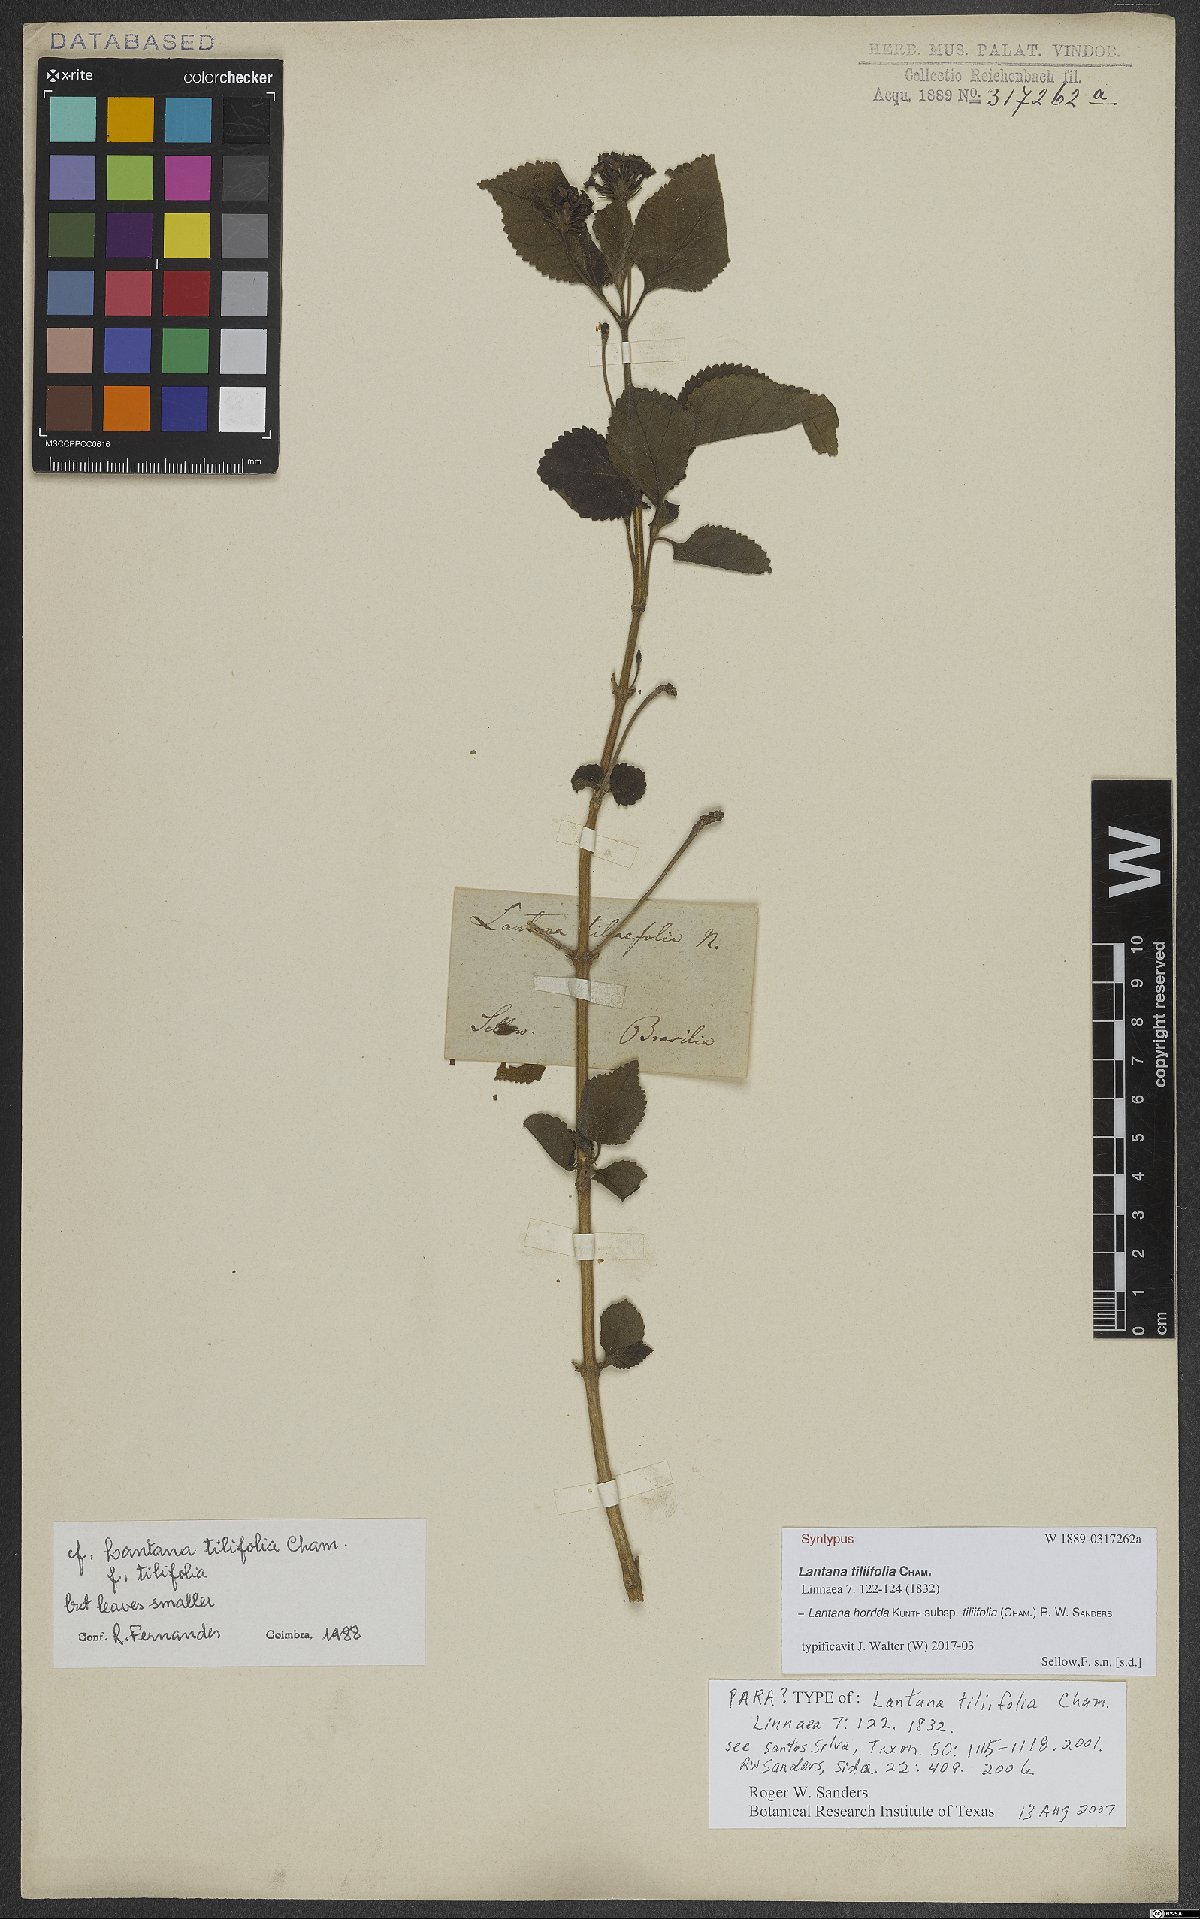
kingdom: Plantae
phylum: Tracheophyta
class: Magnoliopsida
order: Lamiales
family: Verbenaceae
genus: Lantana
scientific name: Lantana horrida
